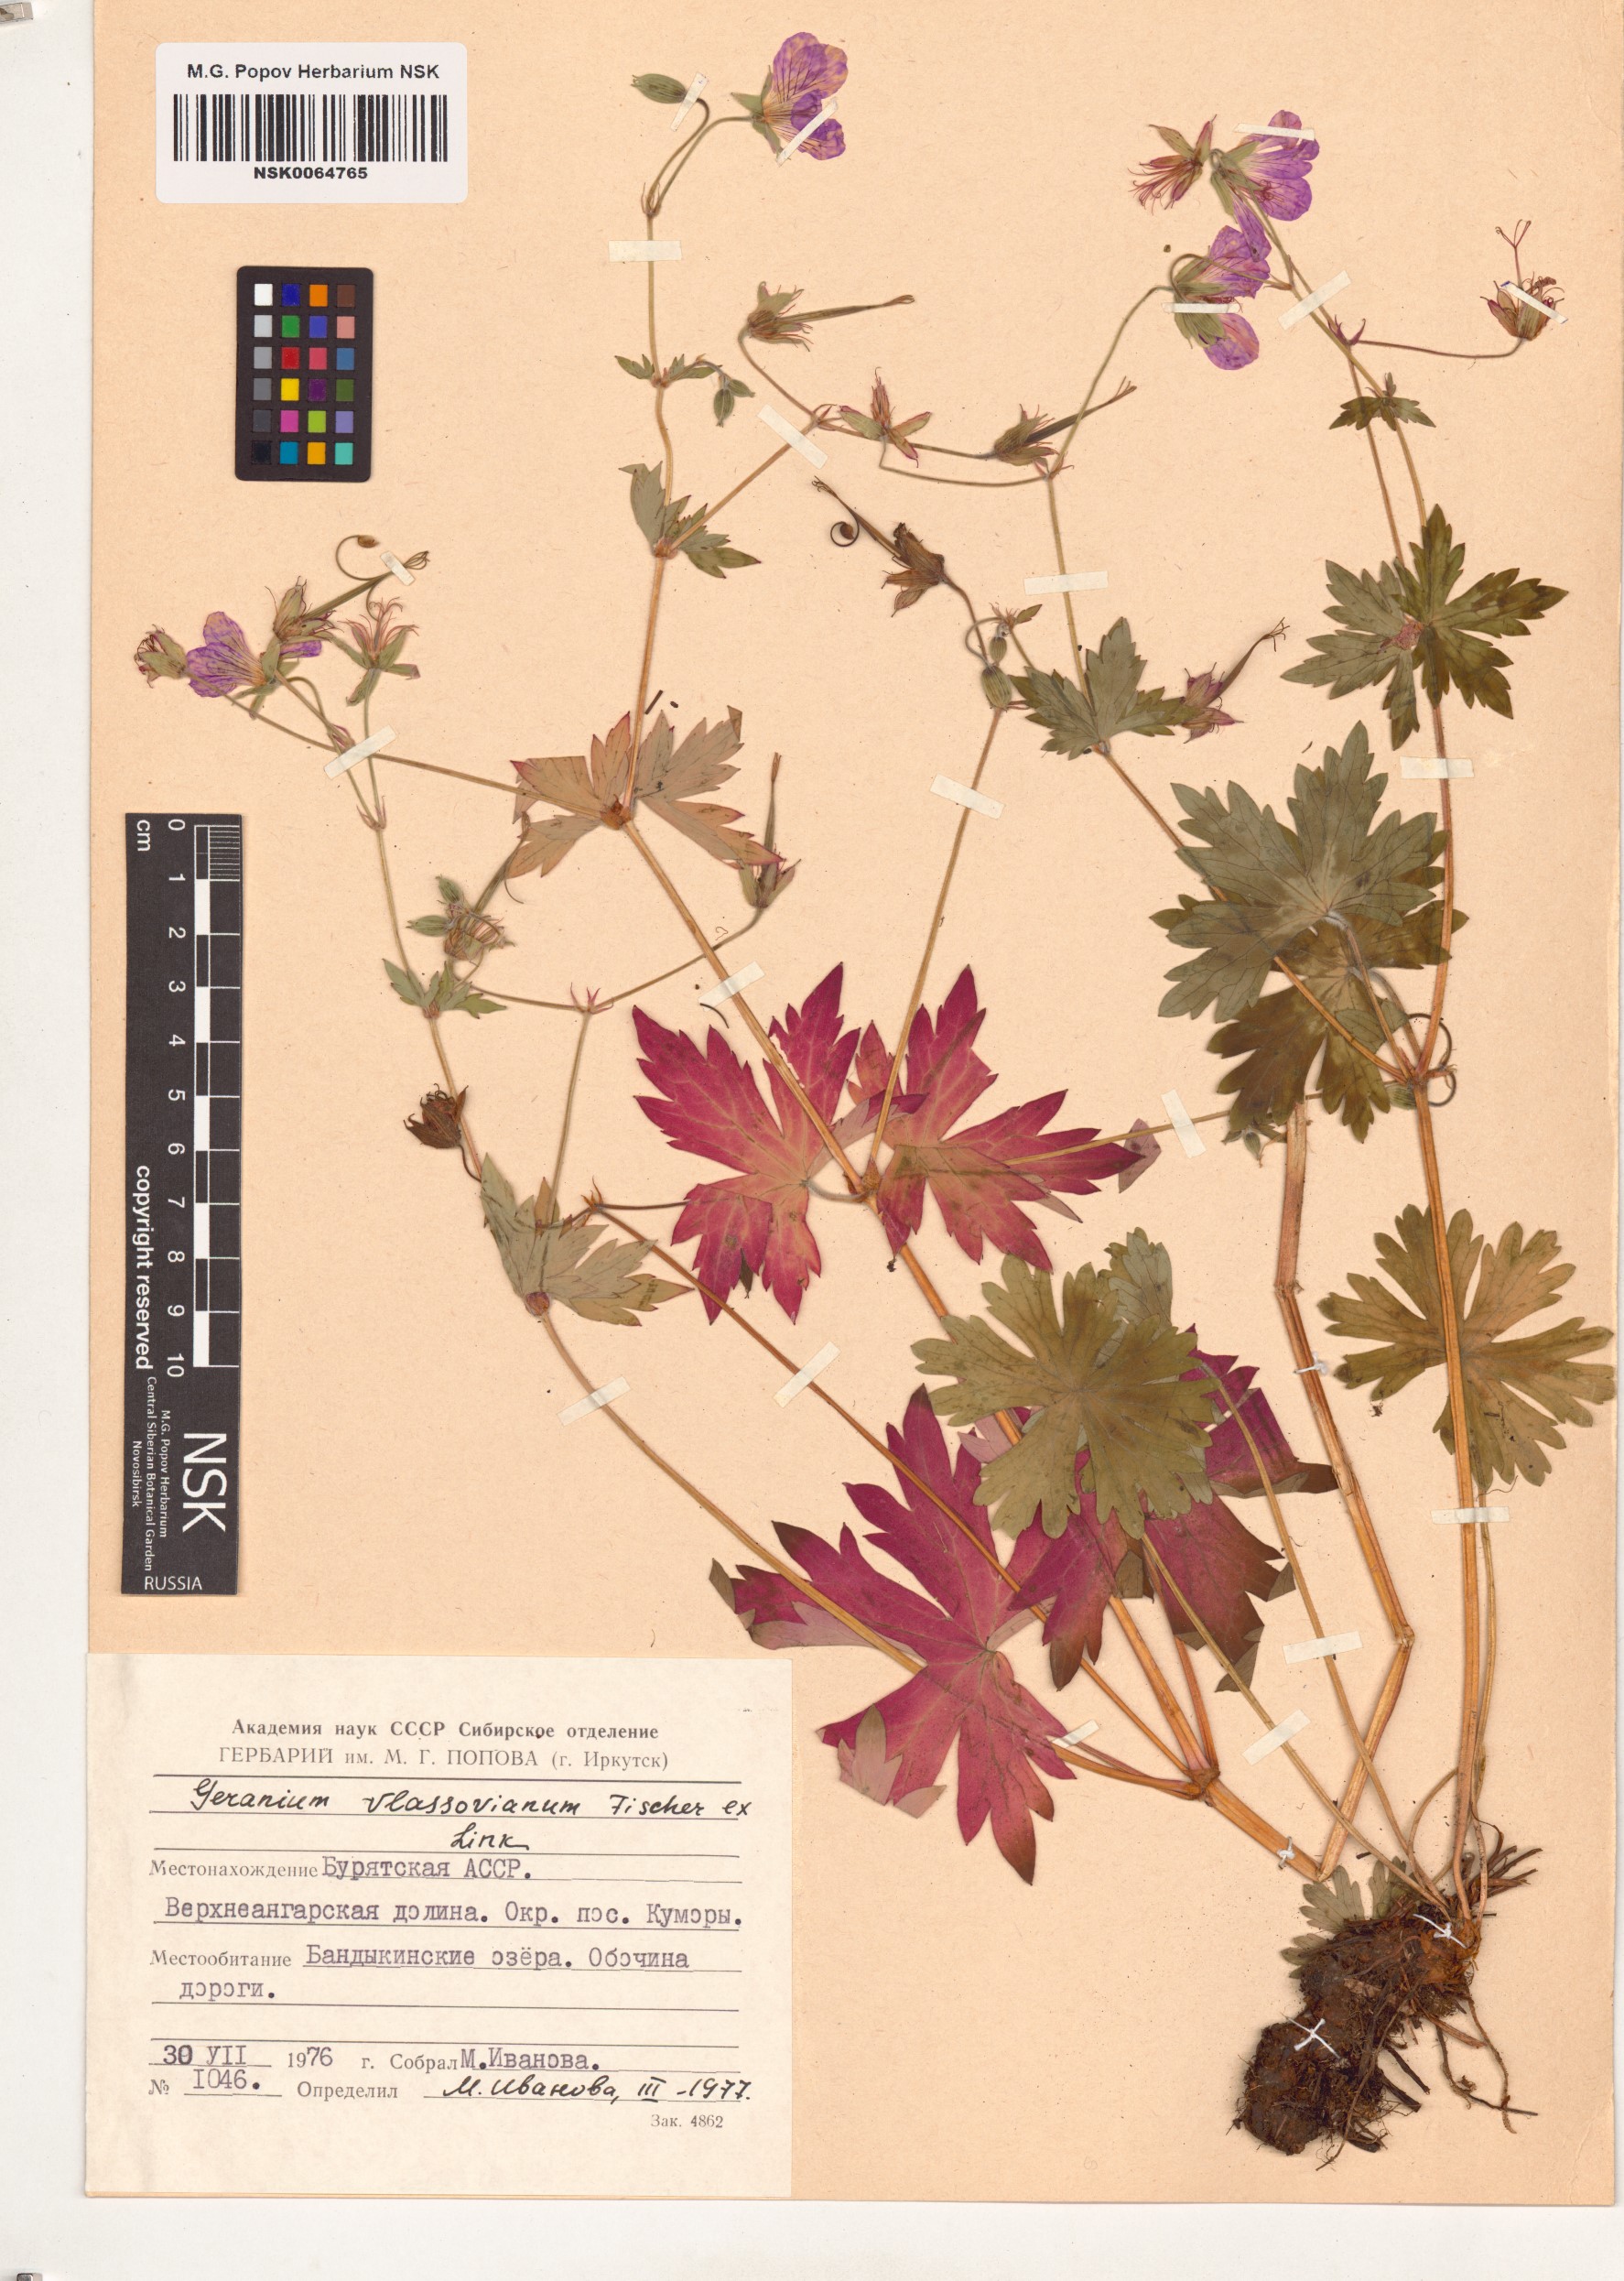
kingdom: Plantae
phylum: Tracheophyta
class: Magnoliopsida
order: Geraniales
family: Geraniaceae
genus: Geranium
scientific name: Geranium wlassovianum
